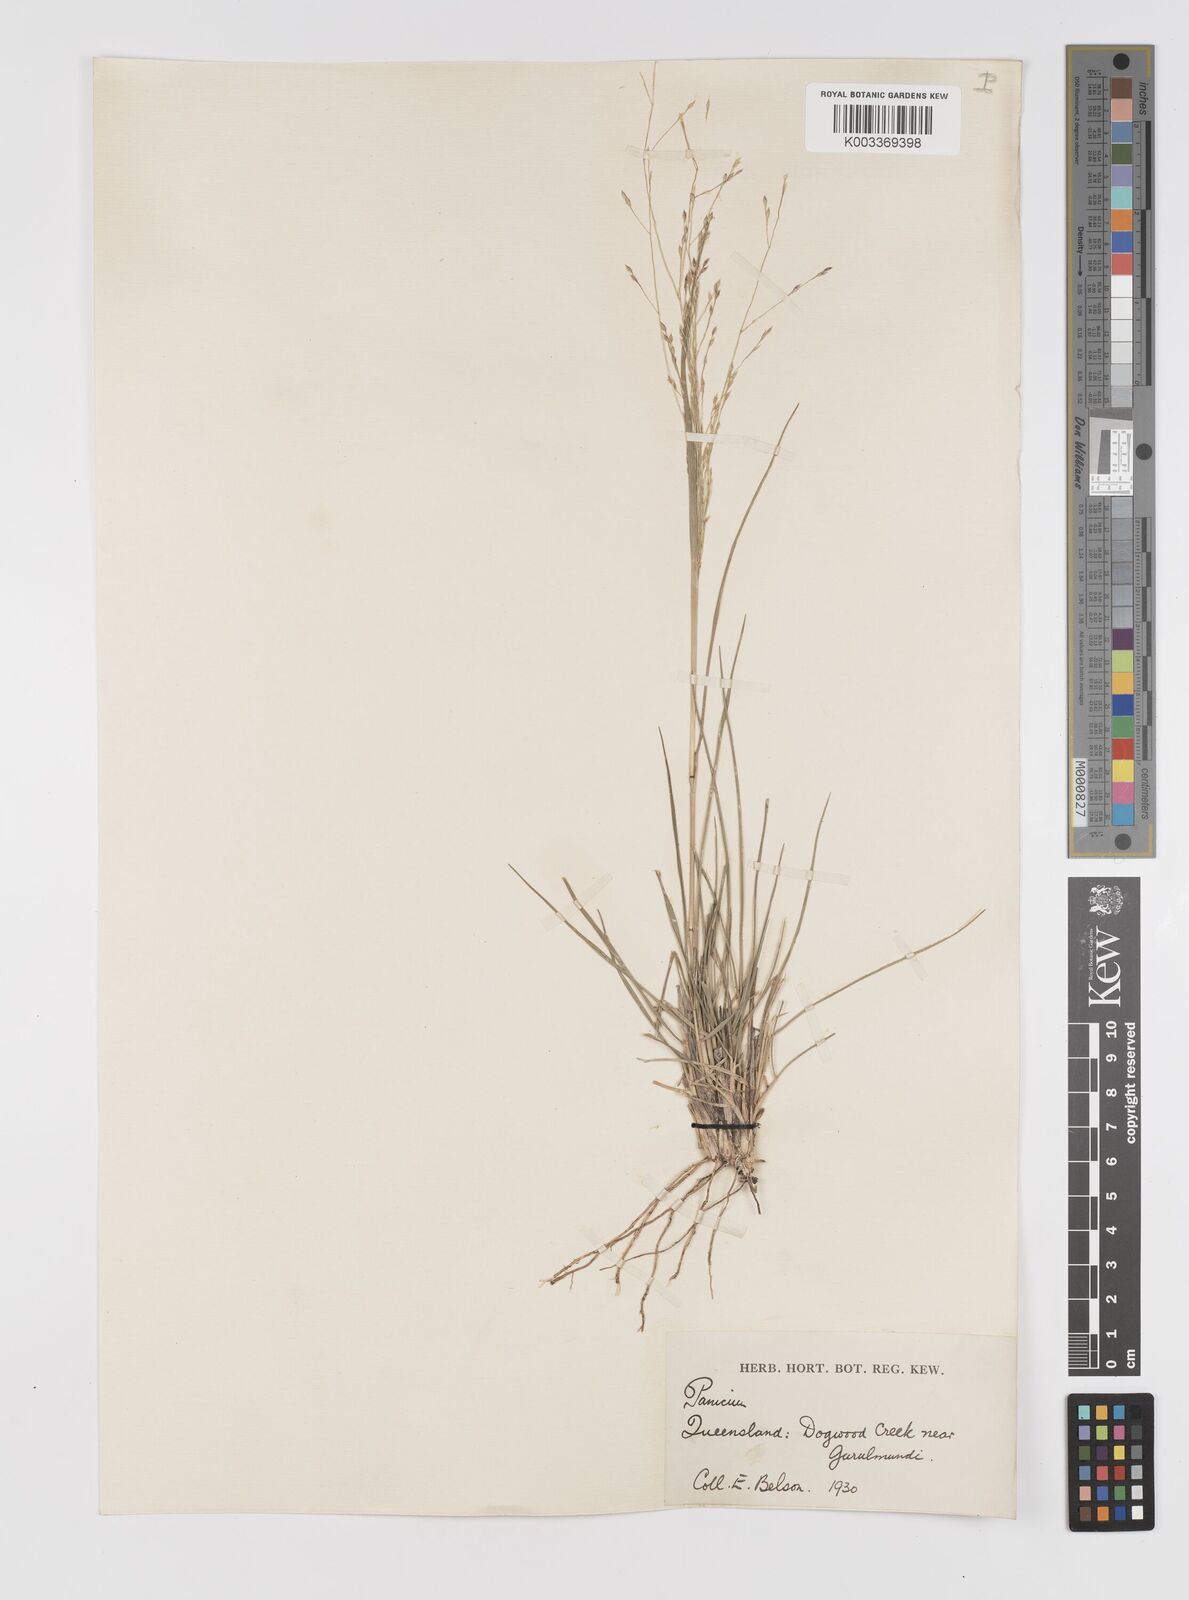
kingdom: Plantae
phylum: Tracheophyta
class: Liliopsida
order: Poales
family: Poaceae
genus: Panicum
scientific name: Panicum queenslandicum
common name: Yabila grass
